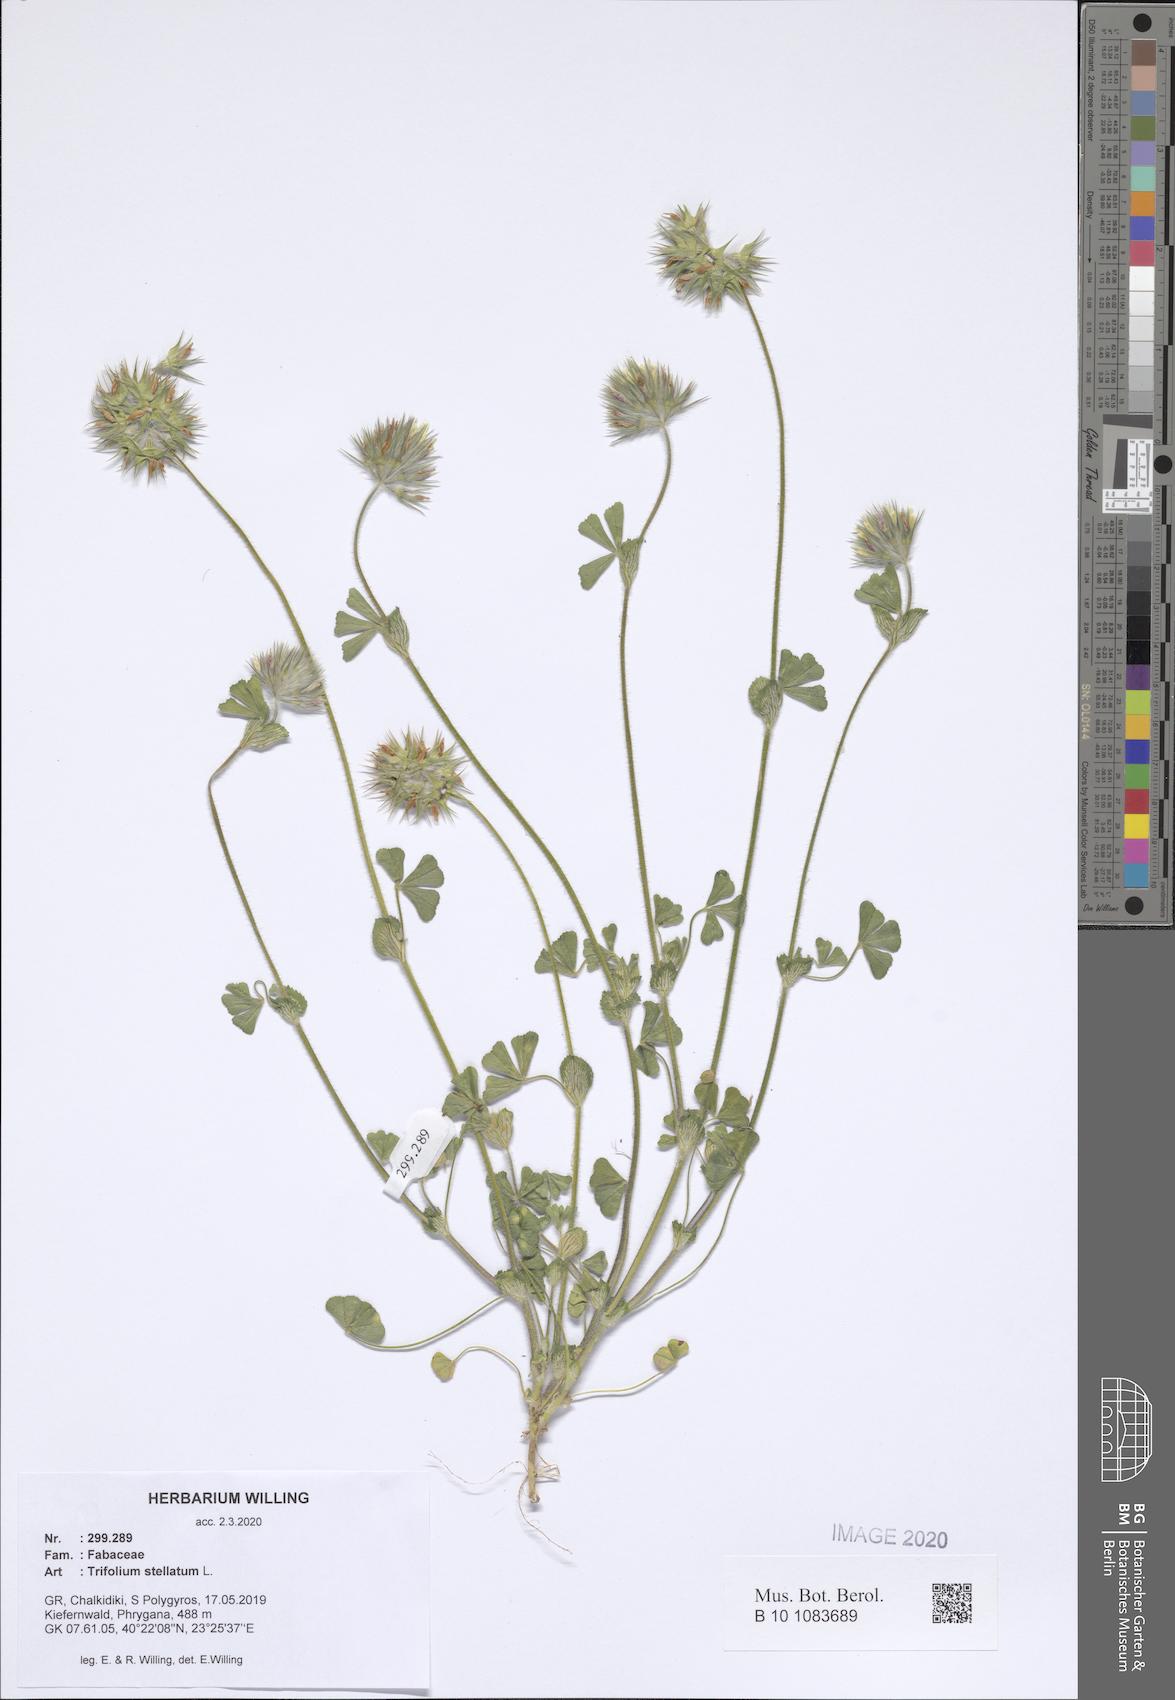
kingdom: Plantae
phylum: Tracheophyta
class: Magnoliopsida
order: Fabales
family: Fabaceae
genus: Trifolium
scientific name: Trifolium stellatum
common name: Starry clover
